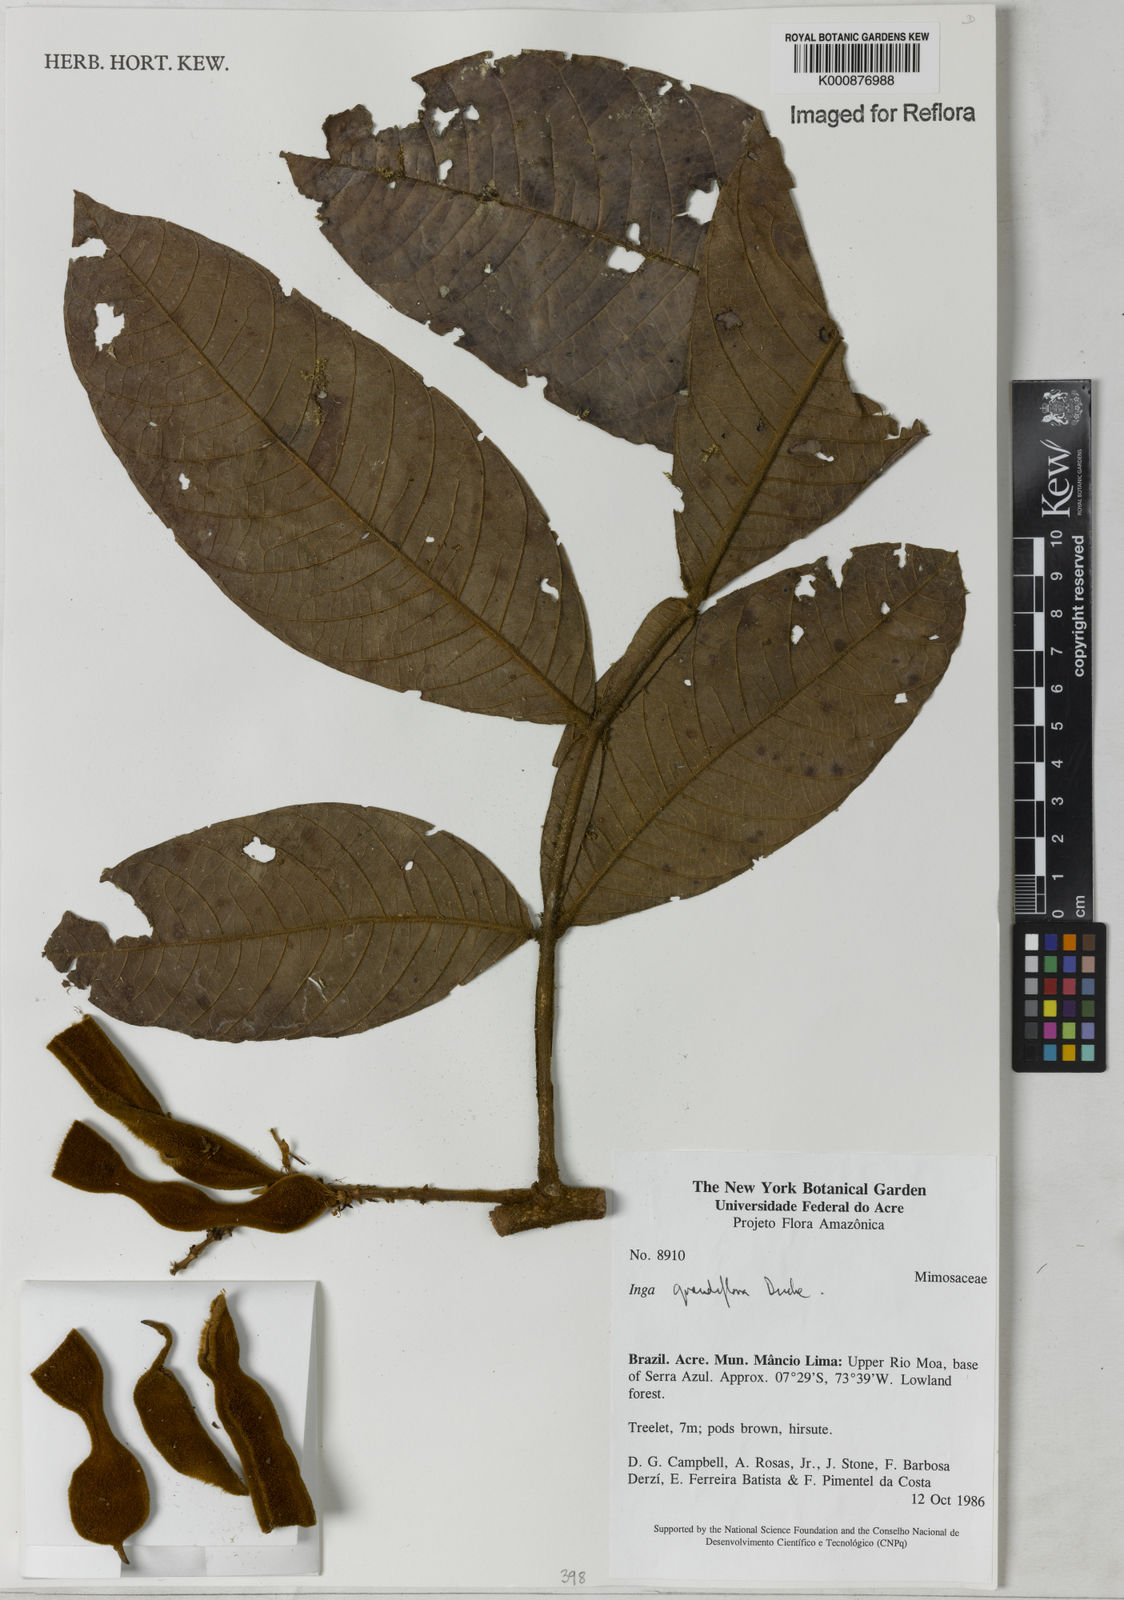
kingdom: Plantae
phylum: Tracheophyta
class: Magnoliopsida
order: Fabales
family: Fabaceae
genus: Inga
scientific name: Inga crassiflora
